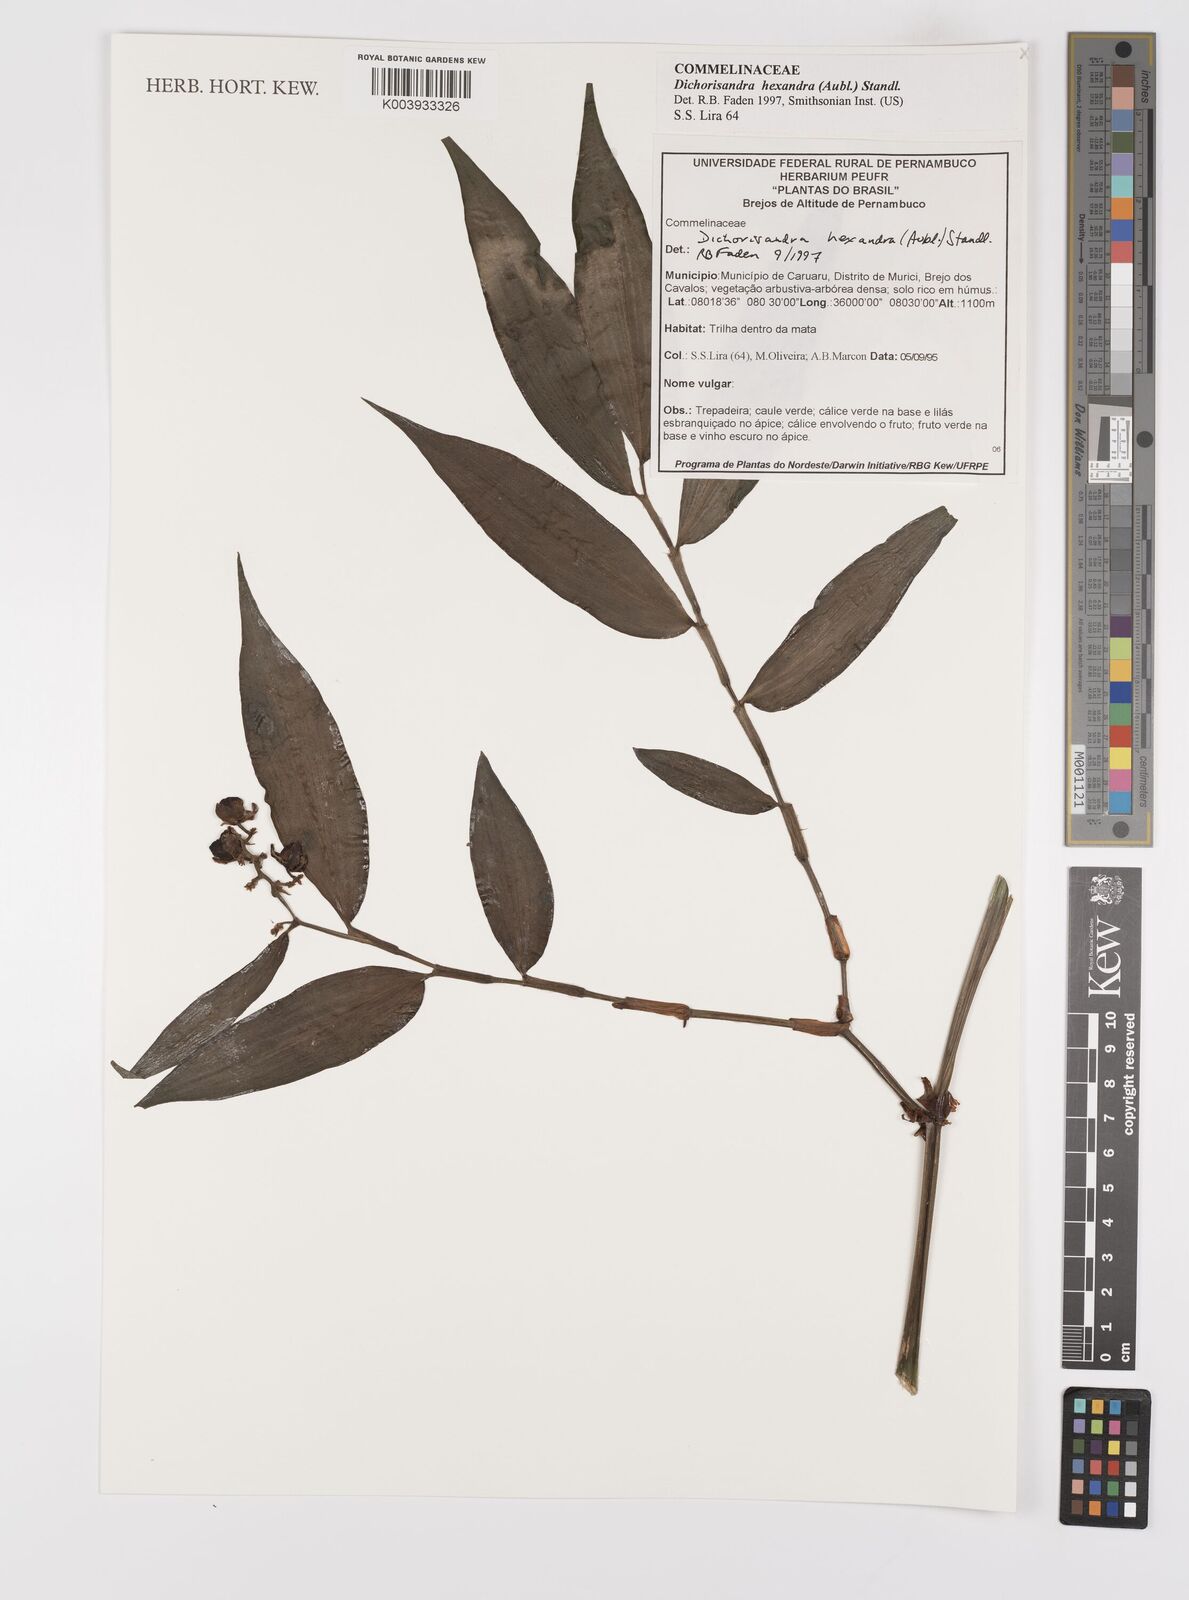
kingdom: Plantae
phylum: Tracheophyta
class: Liliopsida
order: Commelinales
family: Commelinaceae
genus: Dichorisandra
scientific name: Dichorisandra hexandra
